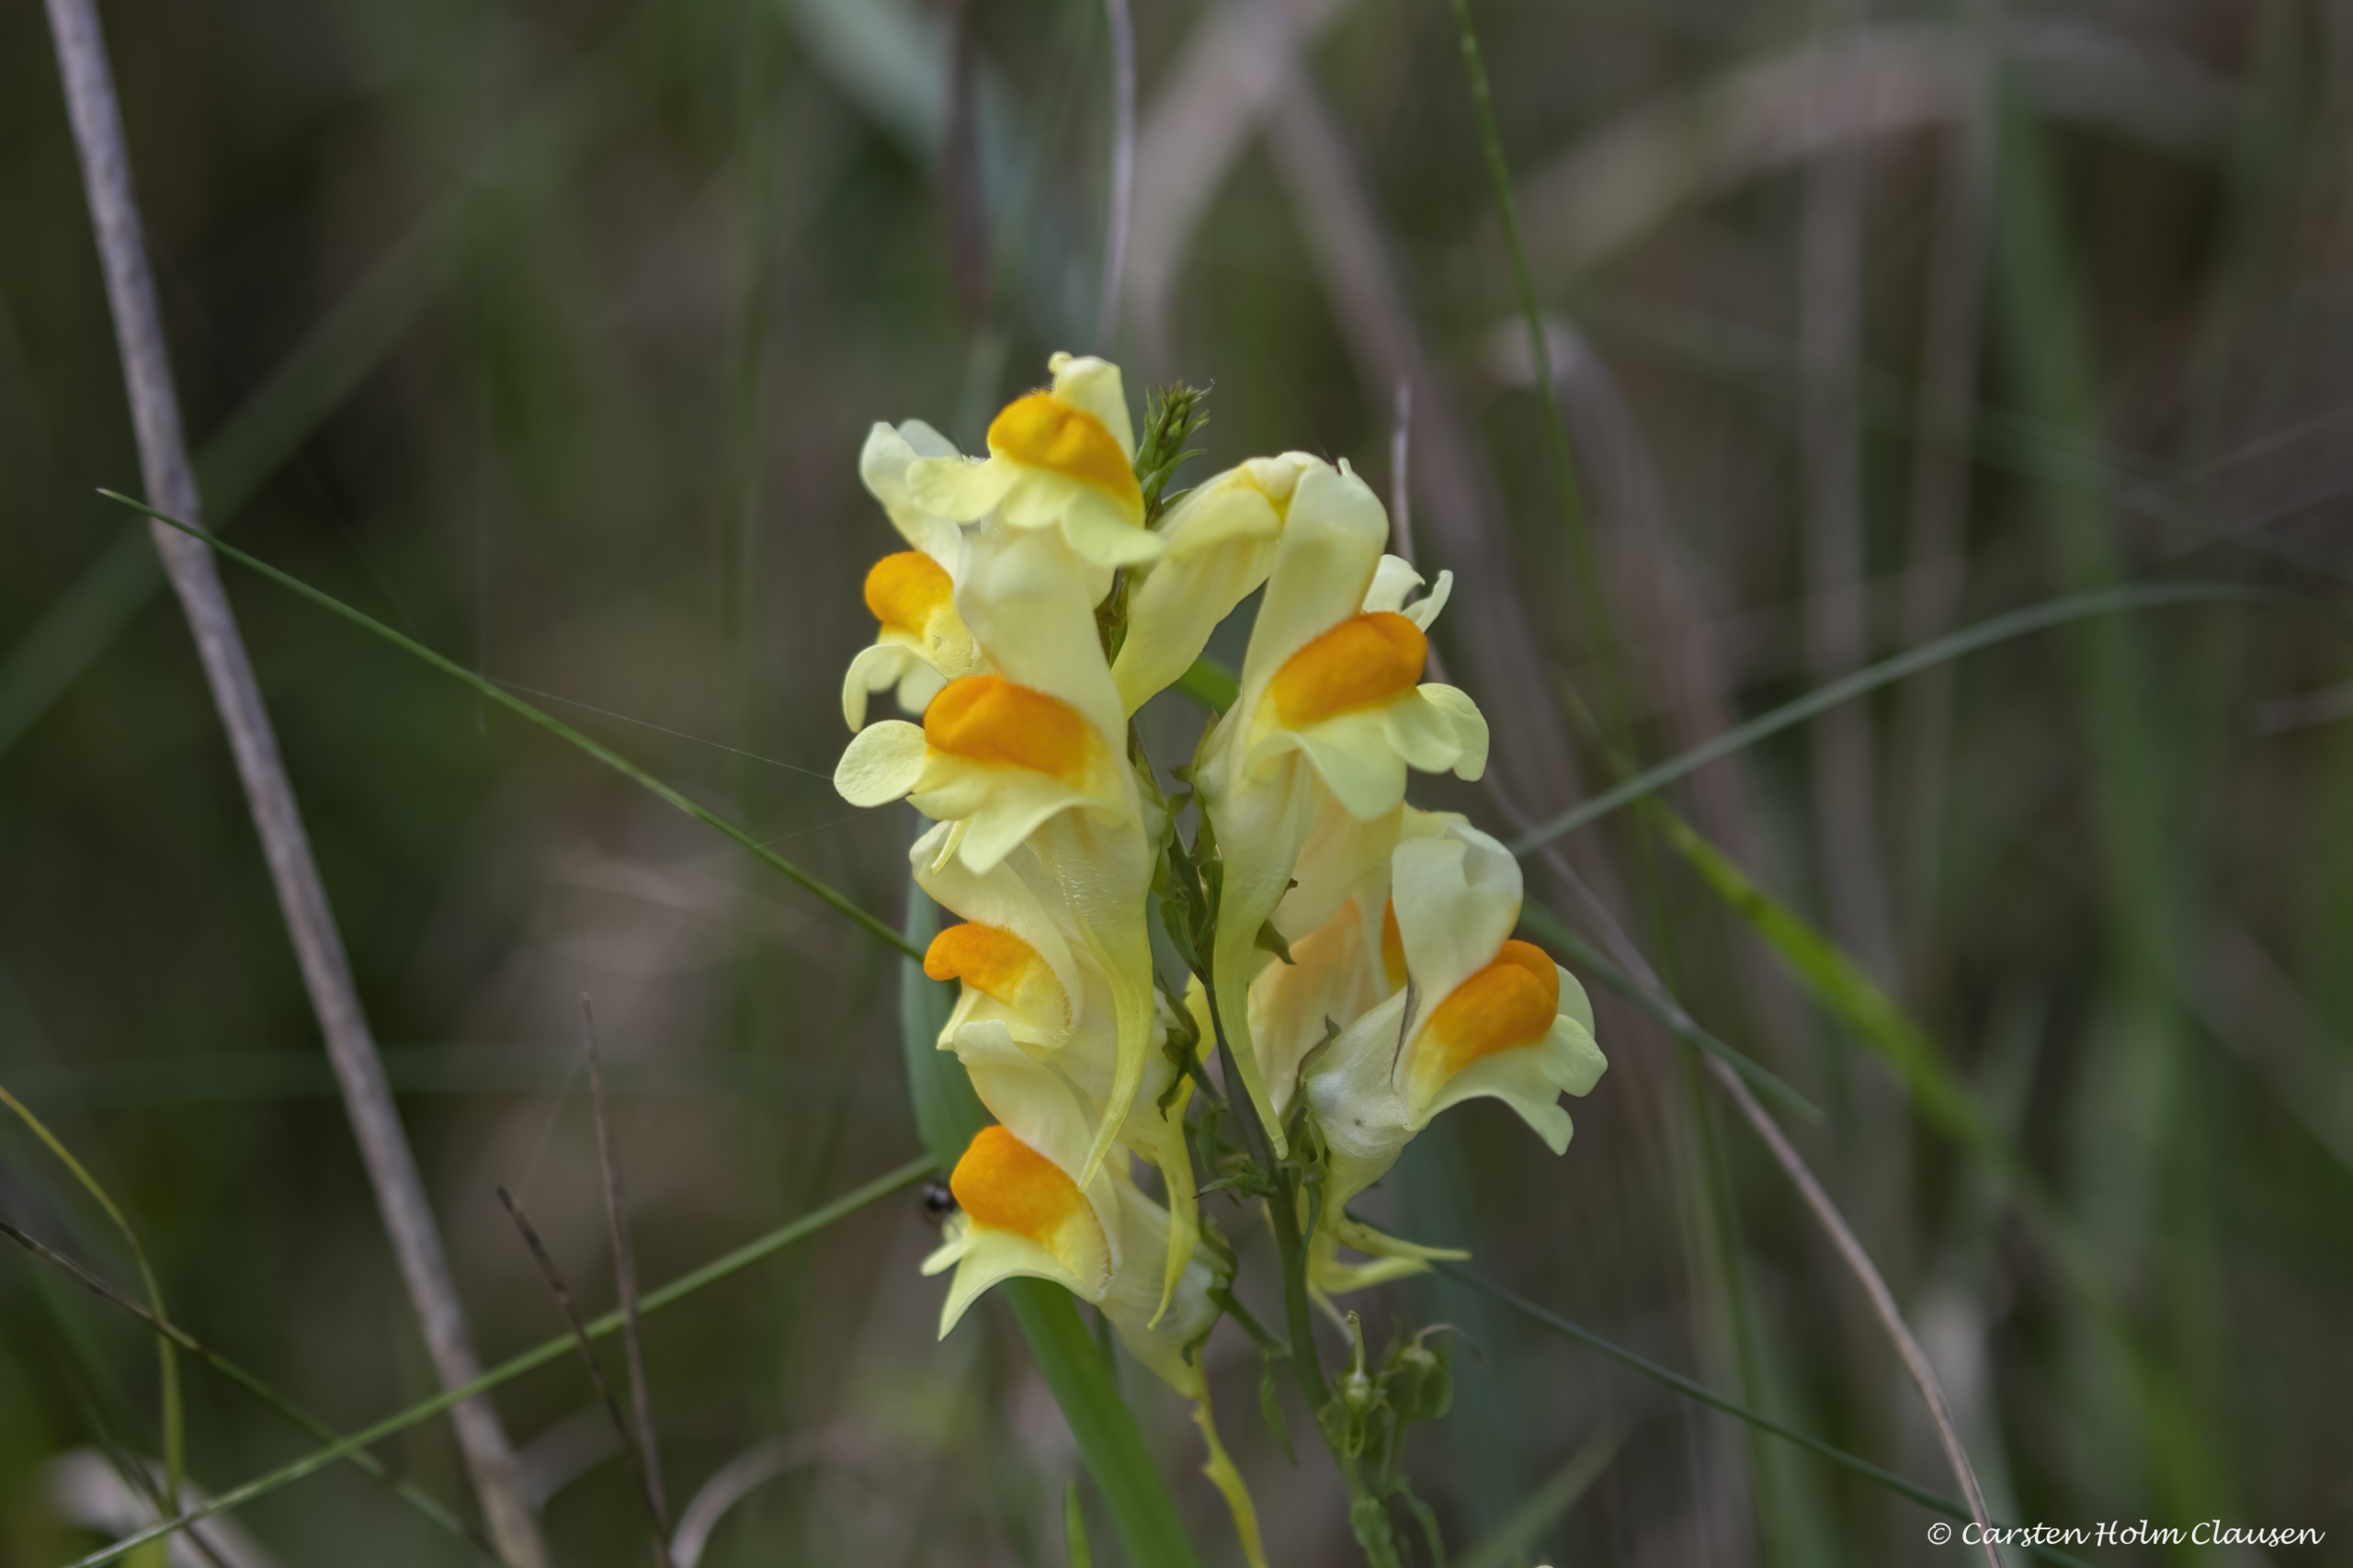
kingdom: Plantae
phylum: Tracheophyta
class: Magnoliopsida
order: Lamiales
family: Plantaginaceae
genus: Linaria
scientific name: Linaria vulgaris
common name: Almindelig torskemund
